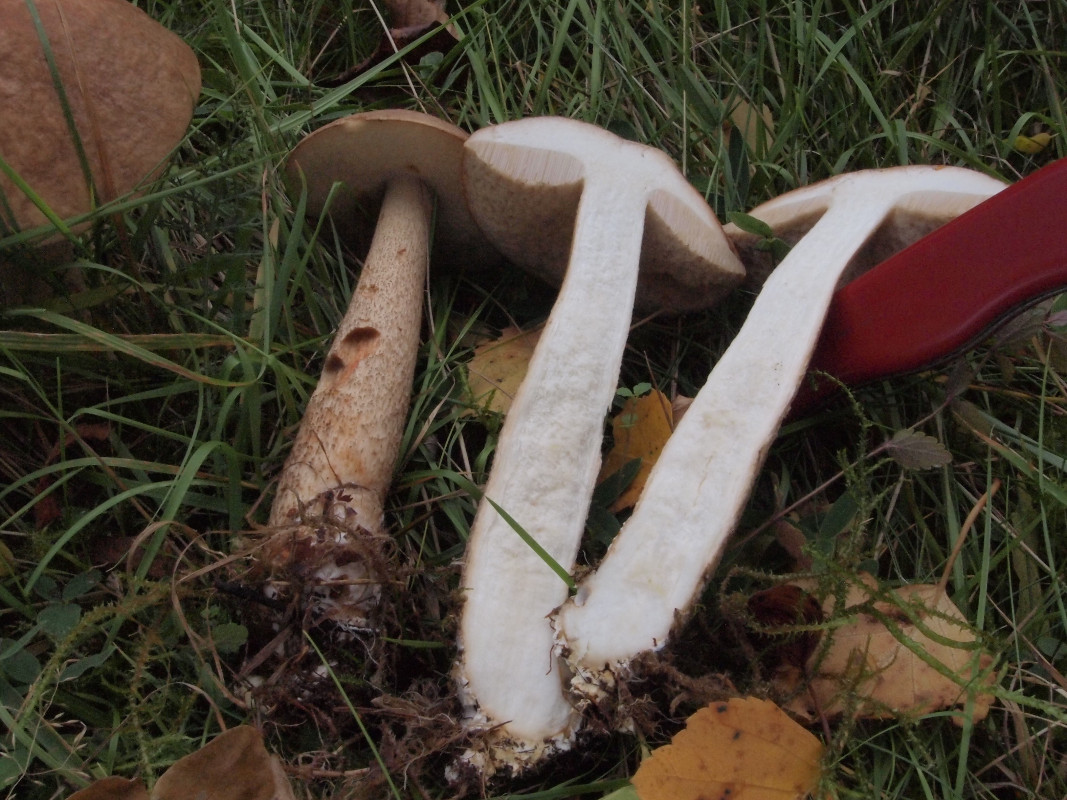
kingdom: Fungi
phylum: Basidiomycota
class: Agaricomycetes
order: Boletales
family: Boletaceae
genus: Leccinum
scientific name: Leccinum
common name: skælrørhat
